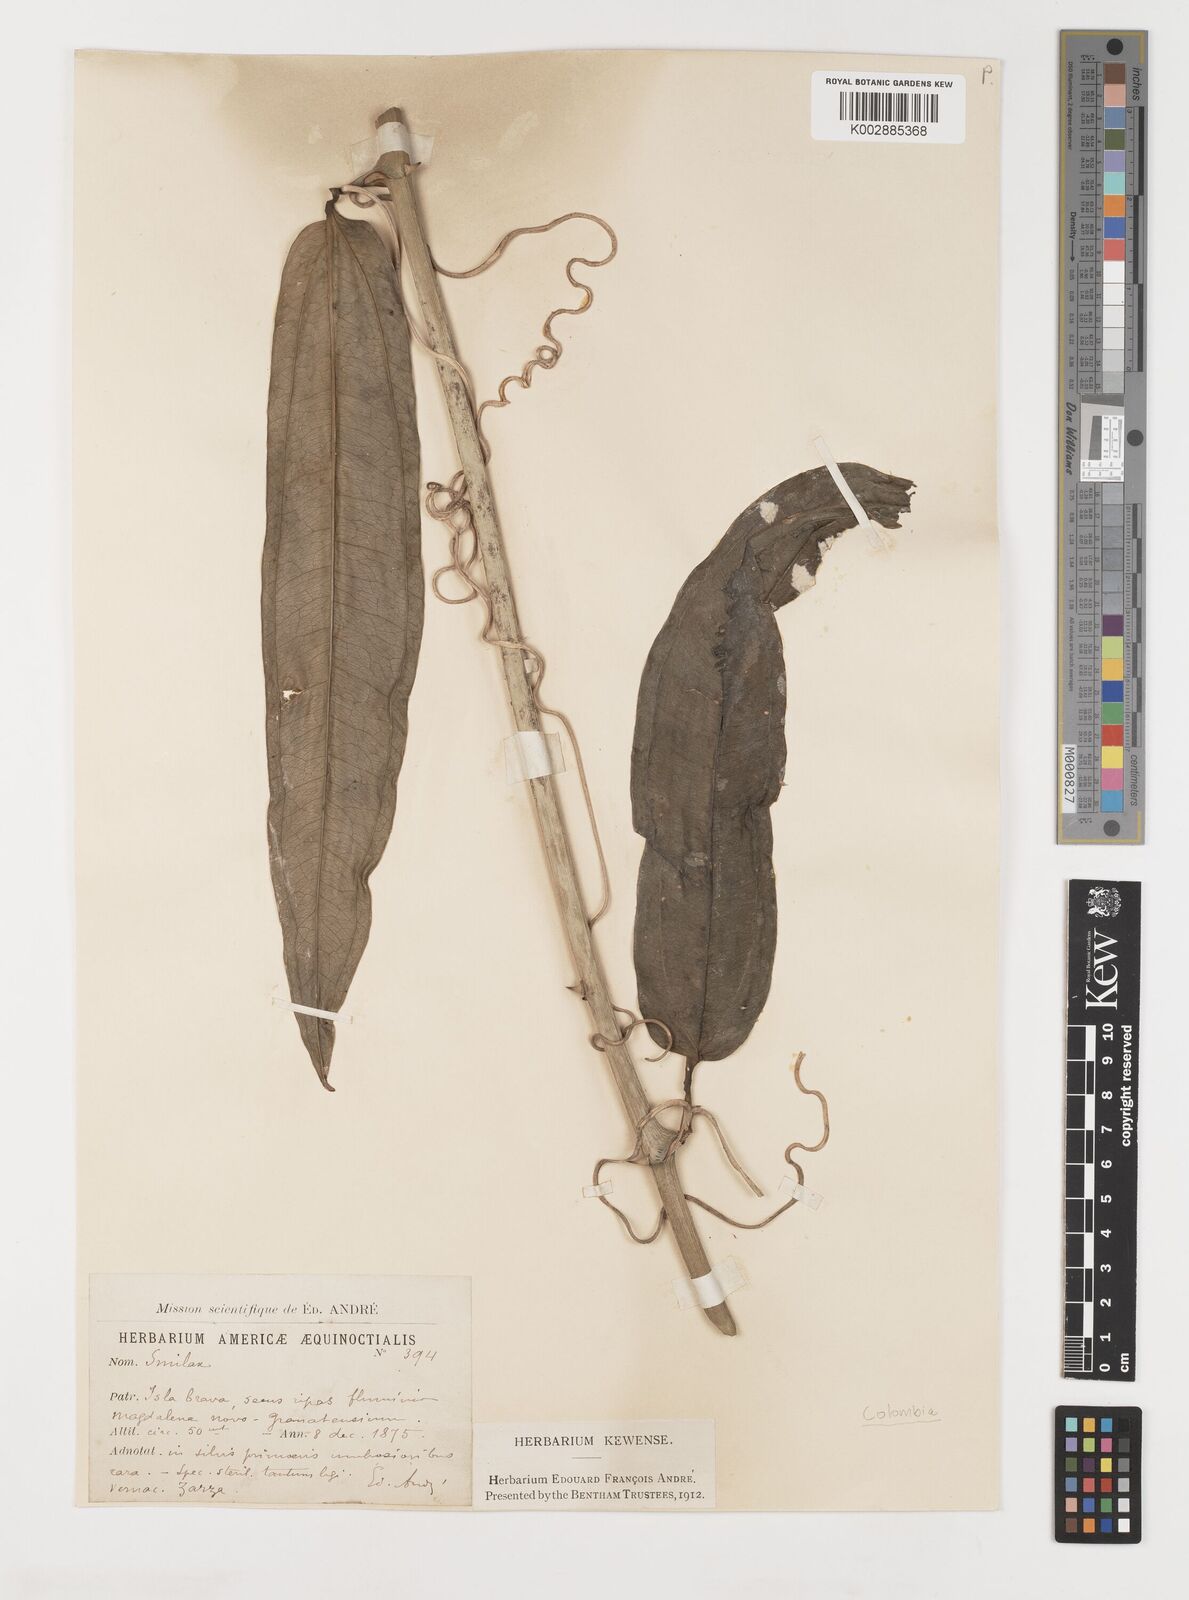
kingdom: Plantae
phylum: Tracheophyta
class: Liliopsida
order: Liliales
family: Smilacaceae
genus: Smilax
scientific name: Smilax
